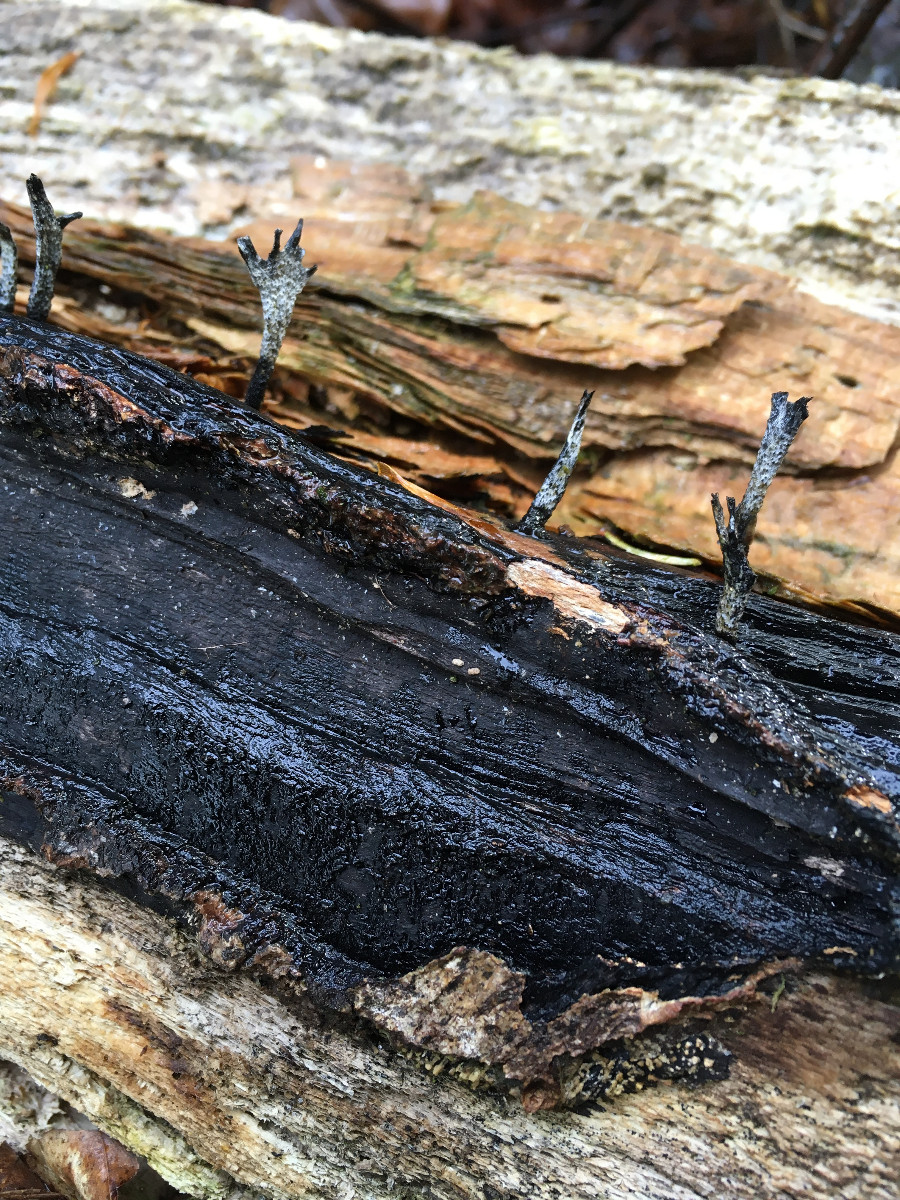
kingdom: Fungi
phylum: Ascomycota
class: Sordariomycetes
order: Xylariales
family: Xylariaceae
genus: Xylaria
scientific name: Xylaria hypoxylon
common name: grenet stødsvamp
